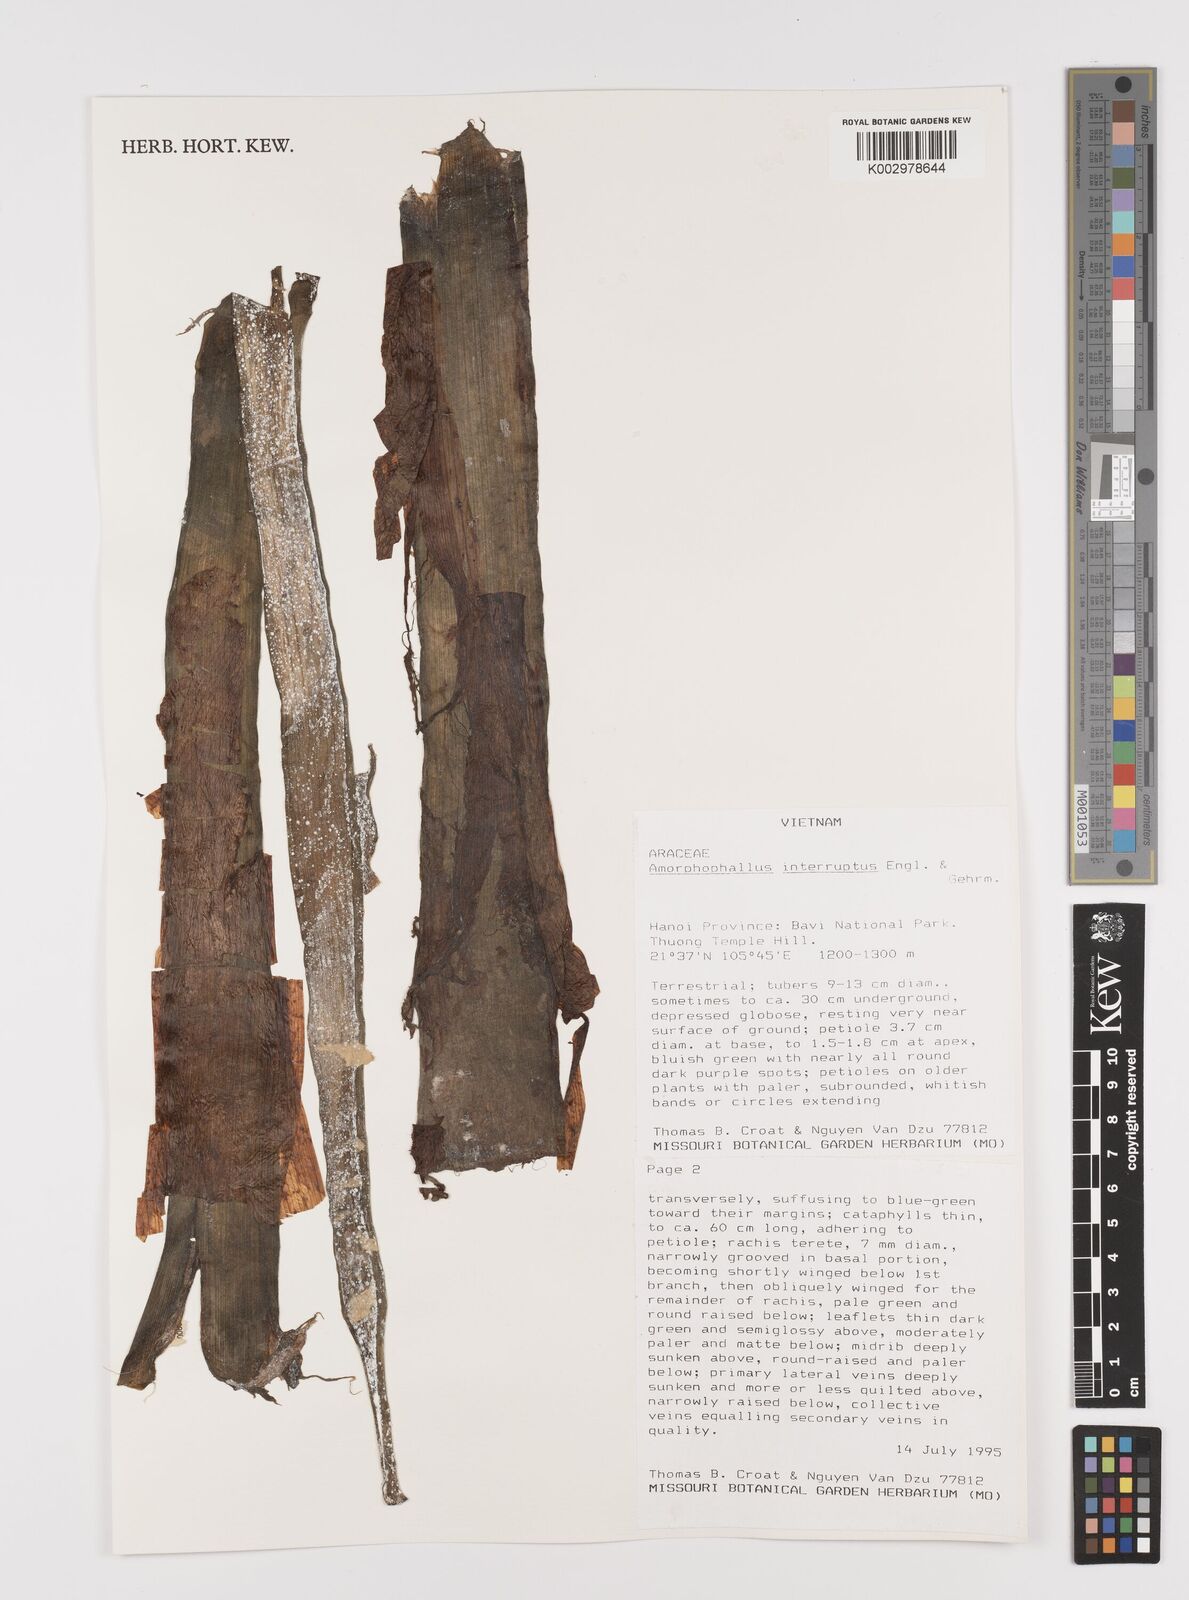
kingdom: Plantae
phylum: Tracheophyta
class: Liliopsida
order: Alismatales
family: Araceae
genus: Amorphophallus
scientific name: Amorphophallus interruptus
